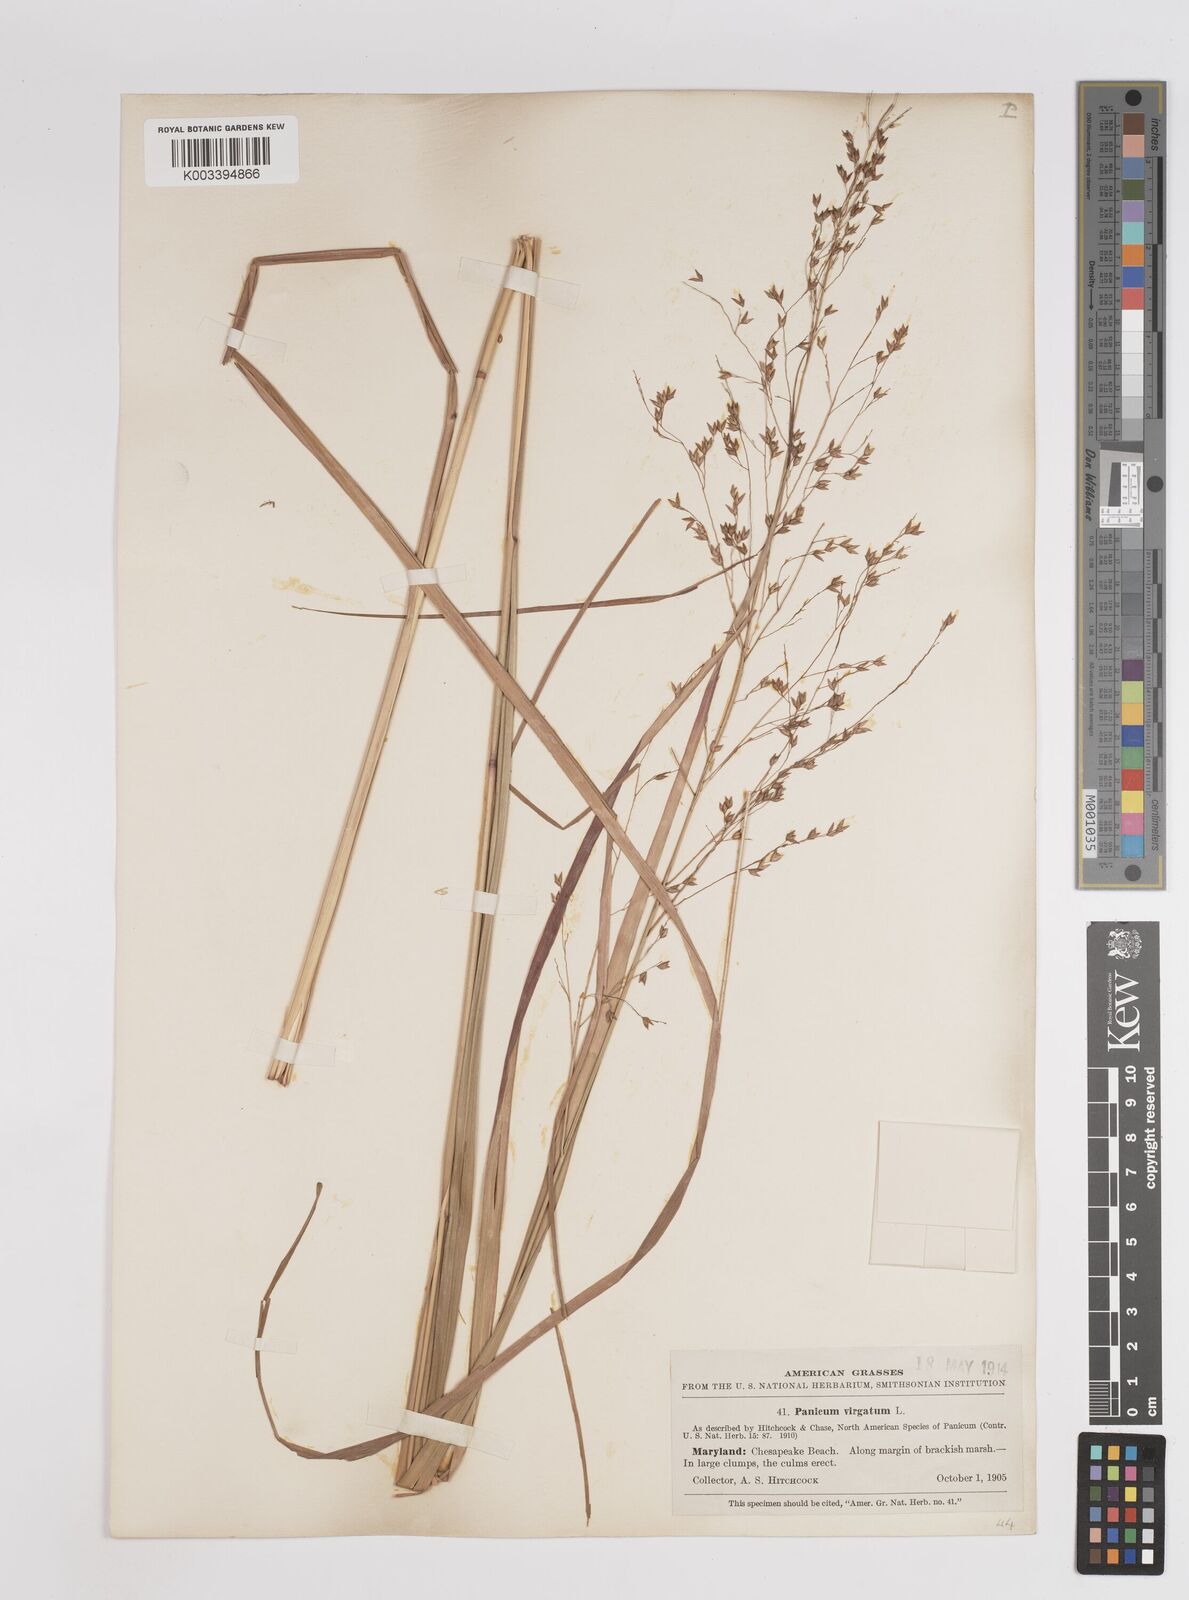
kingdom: Plantae
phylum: Tracheophyta
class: Liliopsida
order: Poales
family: Poaceae
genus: Panicum
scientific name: Panicum virgatum
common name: Switchgrass
